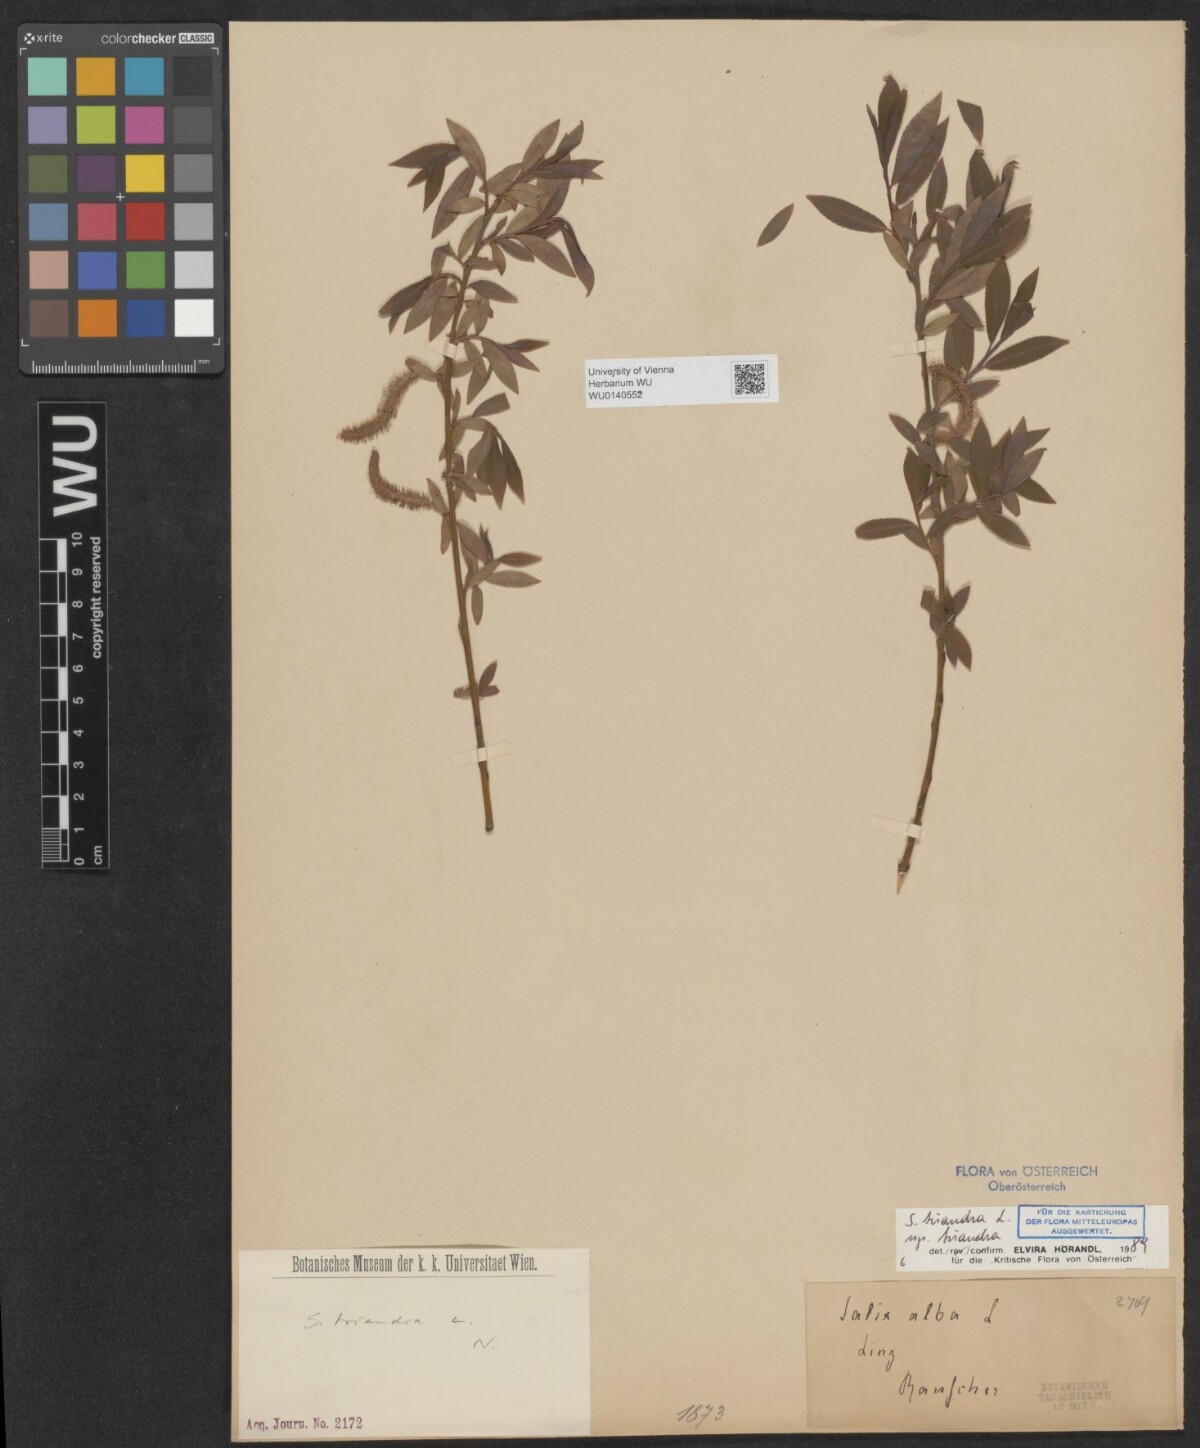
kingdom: Plantae
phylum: Tracheophyta
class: Magnoliopsida
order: Malpighiales
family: Salicaceae
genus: Salix
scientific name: Salix triandra
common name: Almond willow
